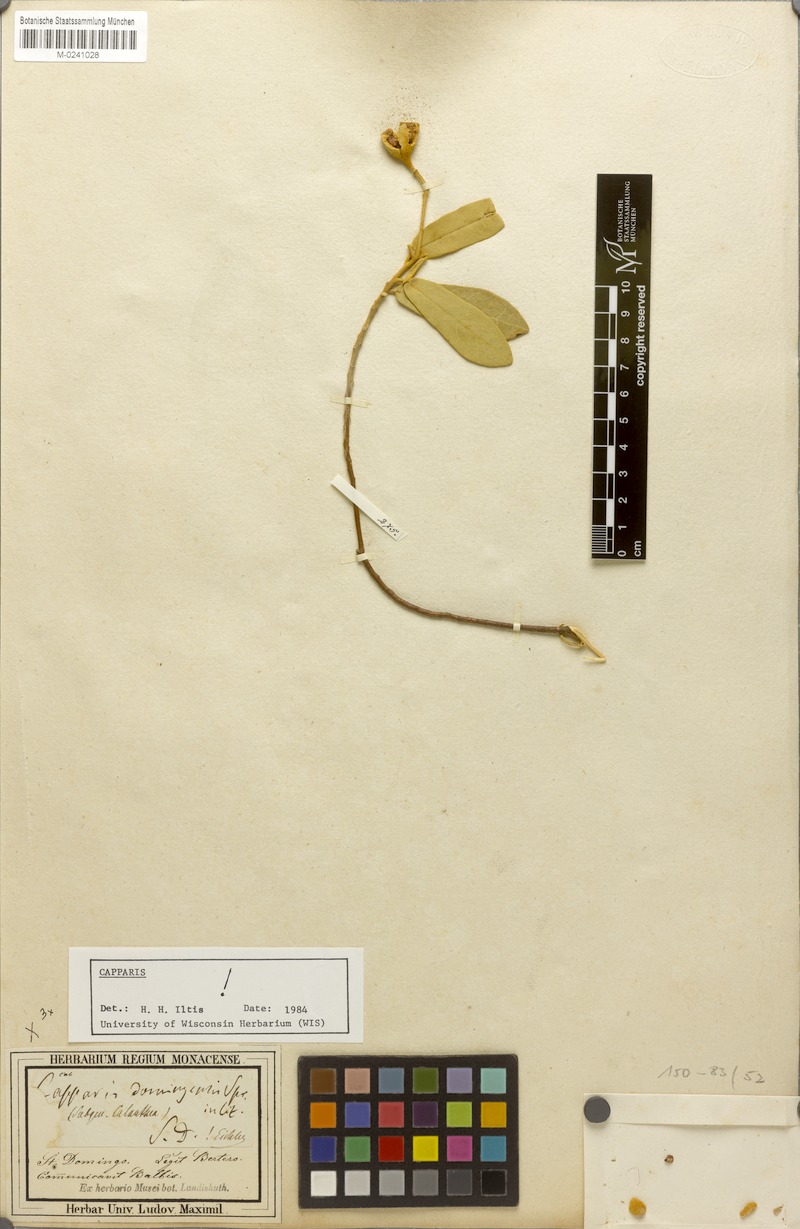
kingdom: Plantae
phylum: Tracheophyta
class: Magnoliopsida
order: Brassicales
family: Capparaceae
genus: Quadrella
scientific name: Quadrella domingensis
